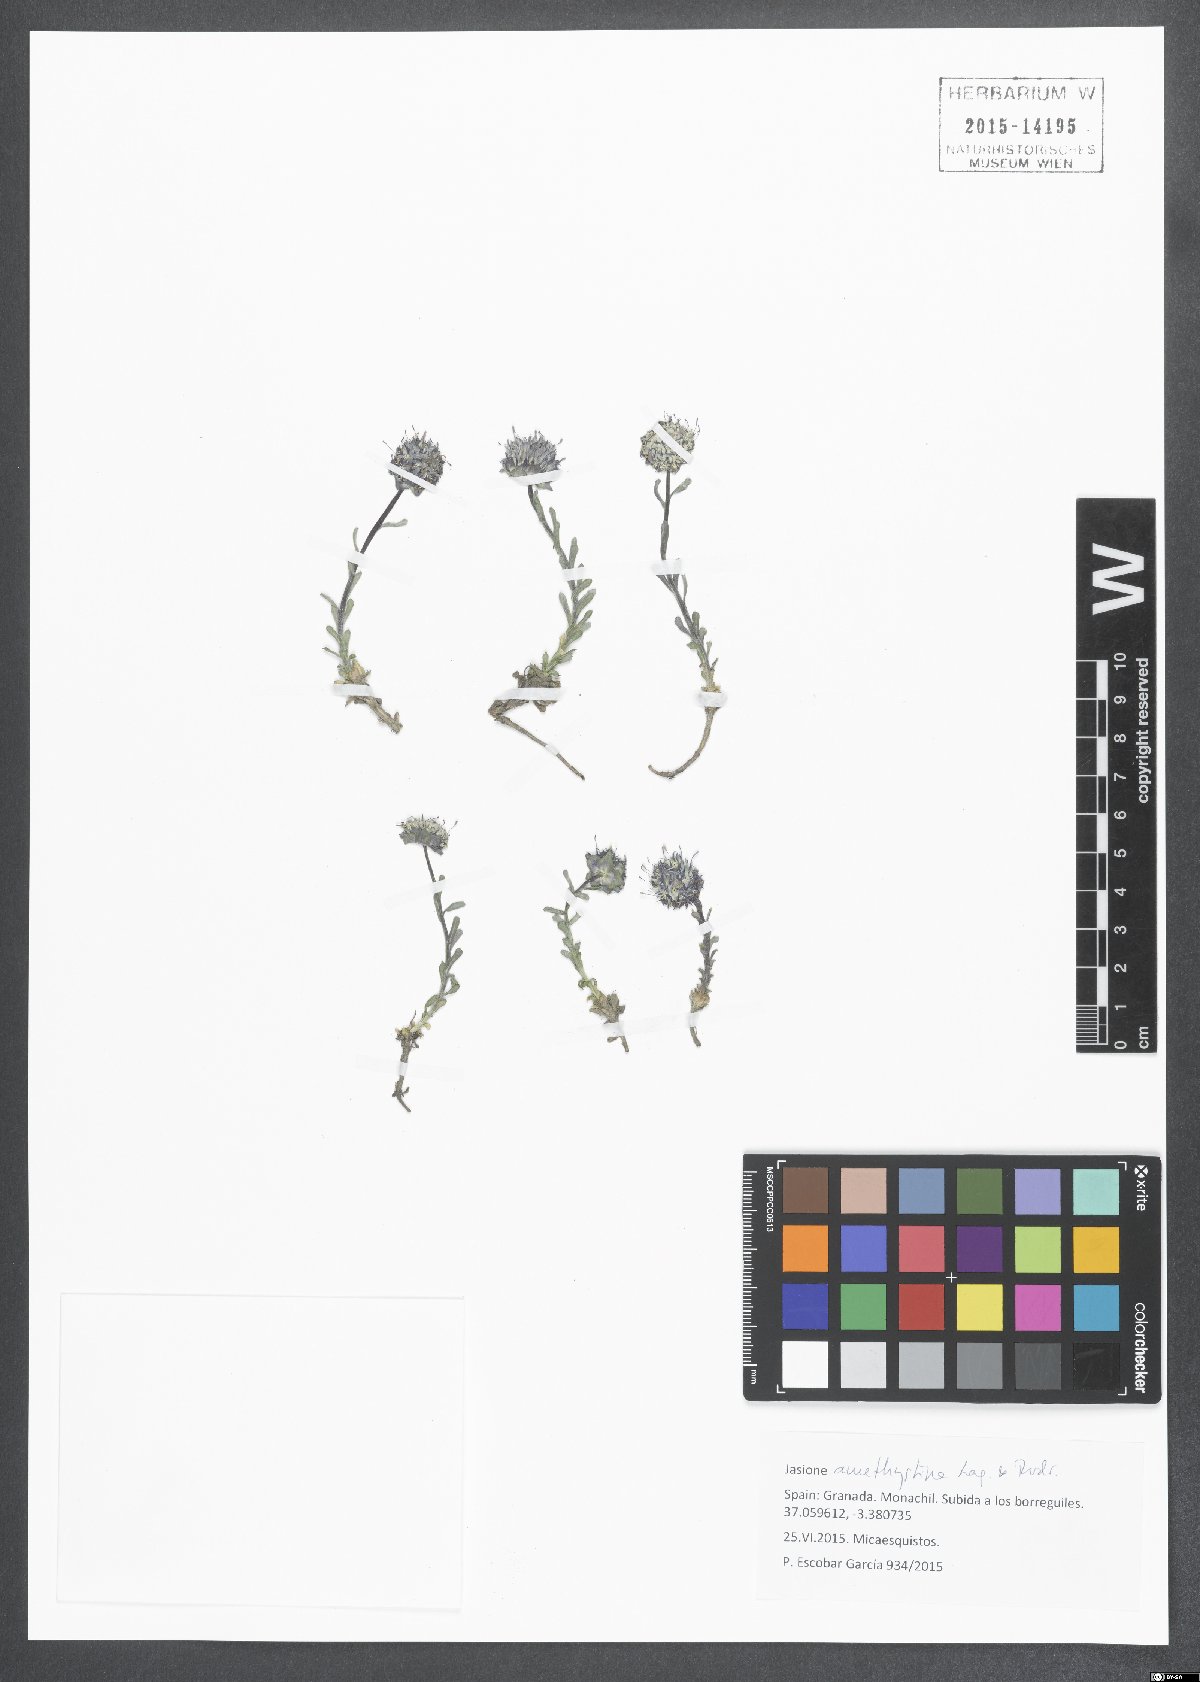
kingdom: Plantae
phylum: Tracheophyta
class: Magnoliopsida
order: Asterales
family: Campanulaceae
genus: Jasione
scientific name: Jasione crispa
